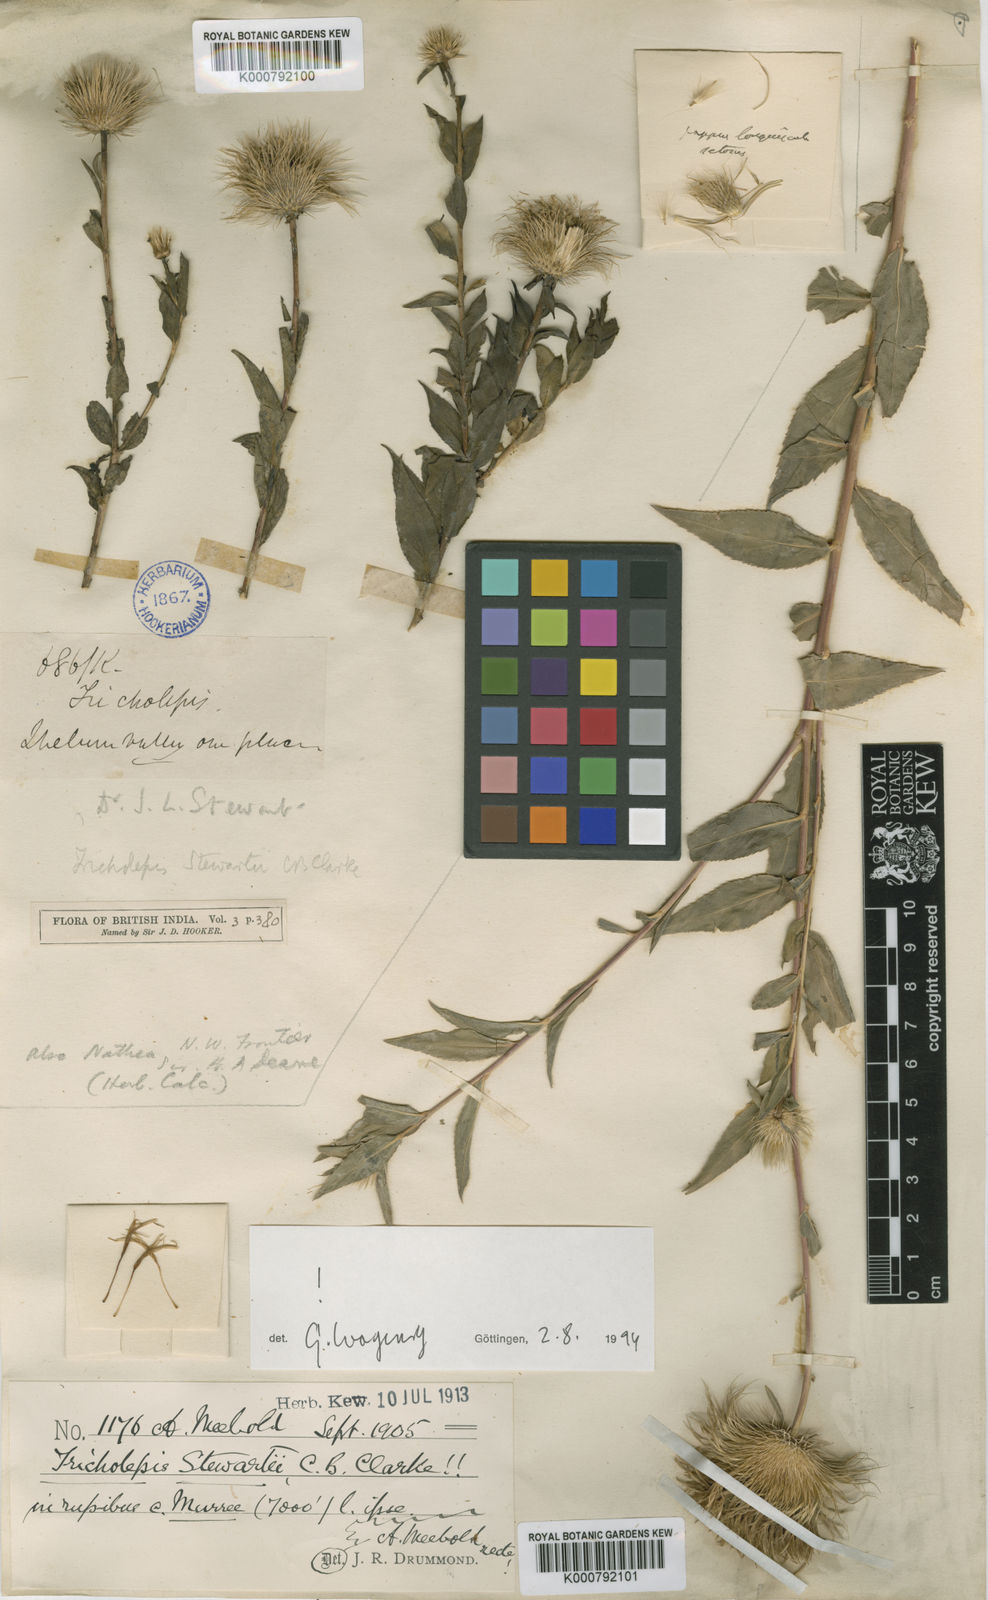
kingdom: Plantae
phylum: Tracheophyta
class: Magnoliopsida
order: Asterales
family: Asteraceae
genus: Tricholepis
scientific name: Tricholepis
